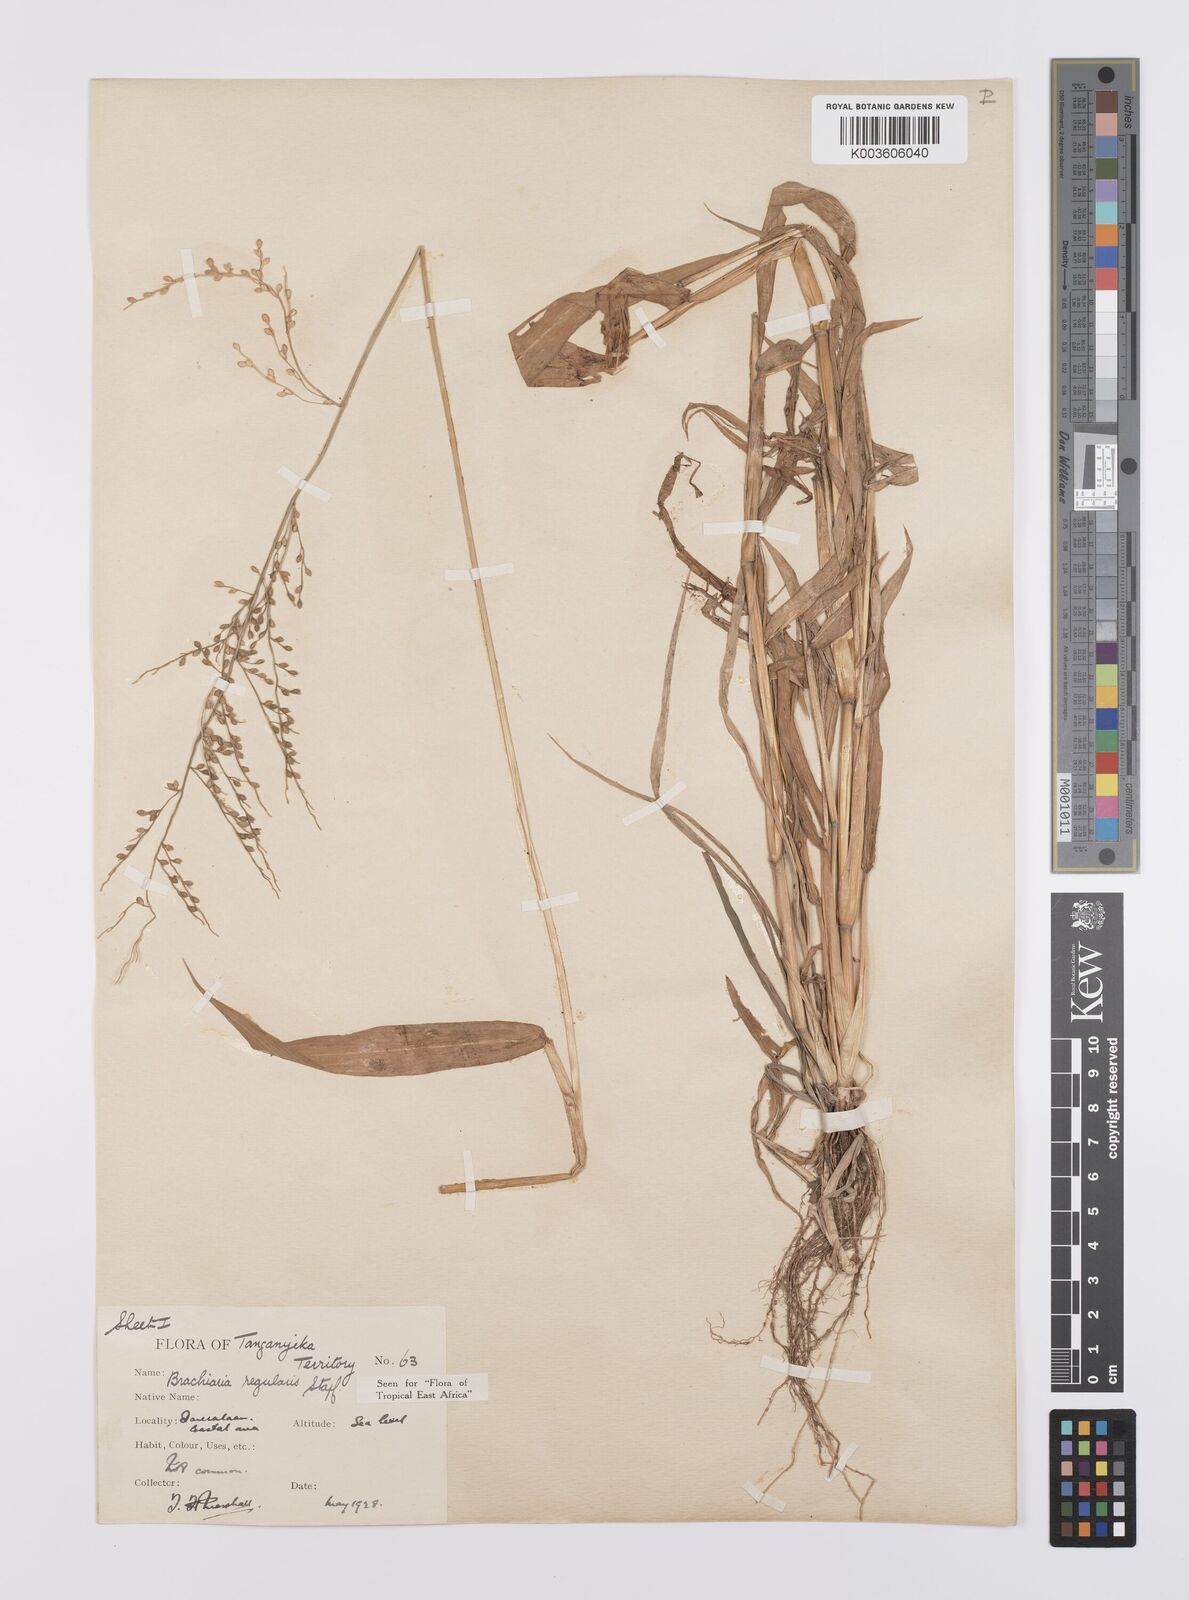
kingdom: Plantae
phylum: Tracheophyta
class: Liliopsida
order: Poales
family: Poaceae
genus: Urochloa
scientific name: Urochloa deflexa
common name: Guinea millet
